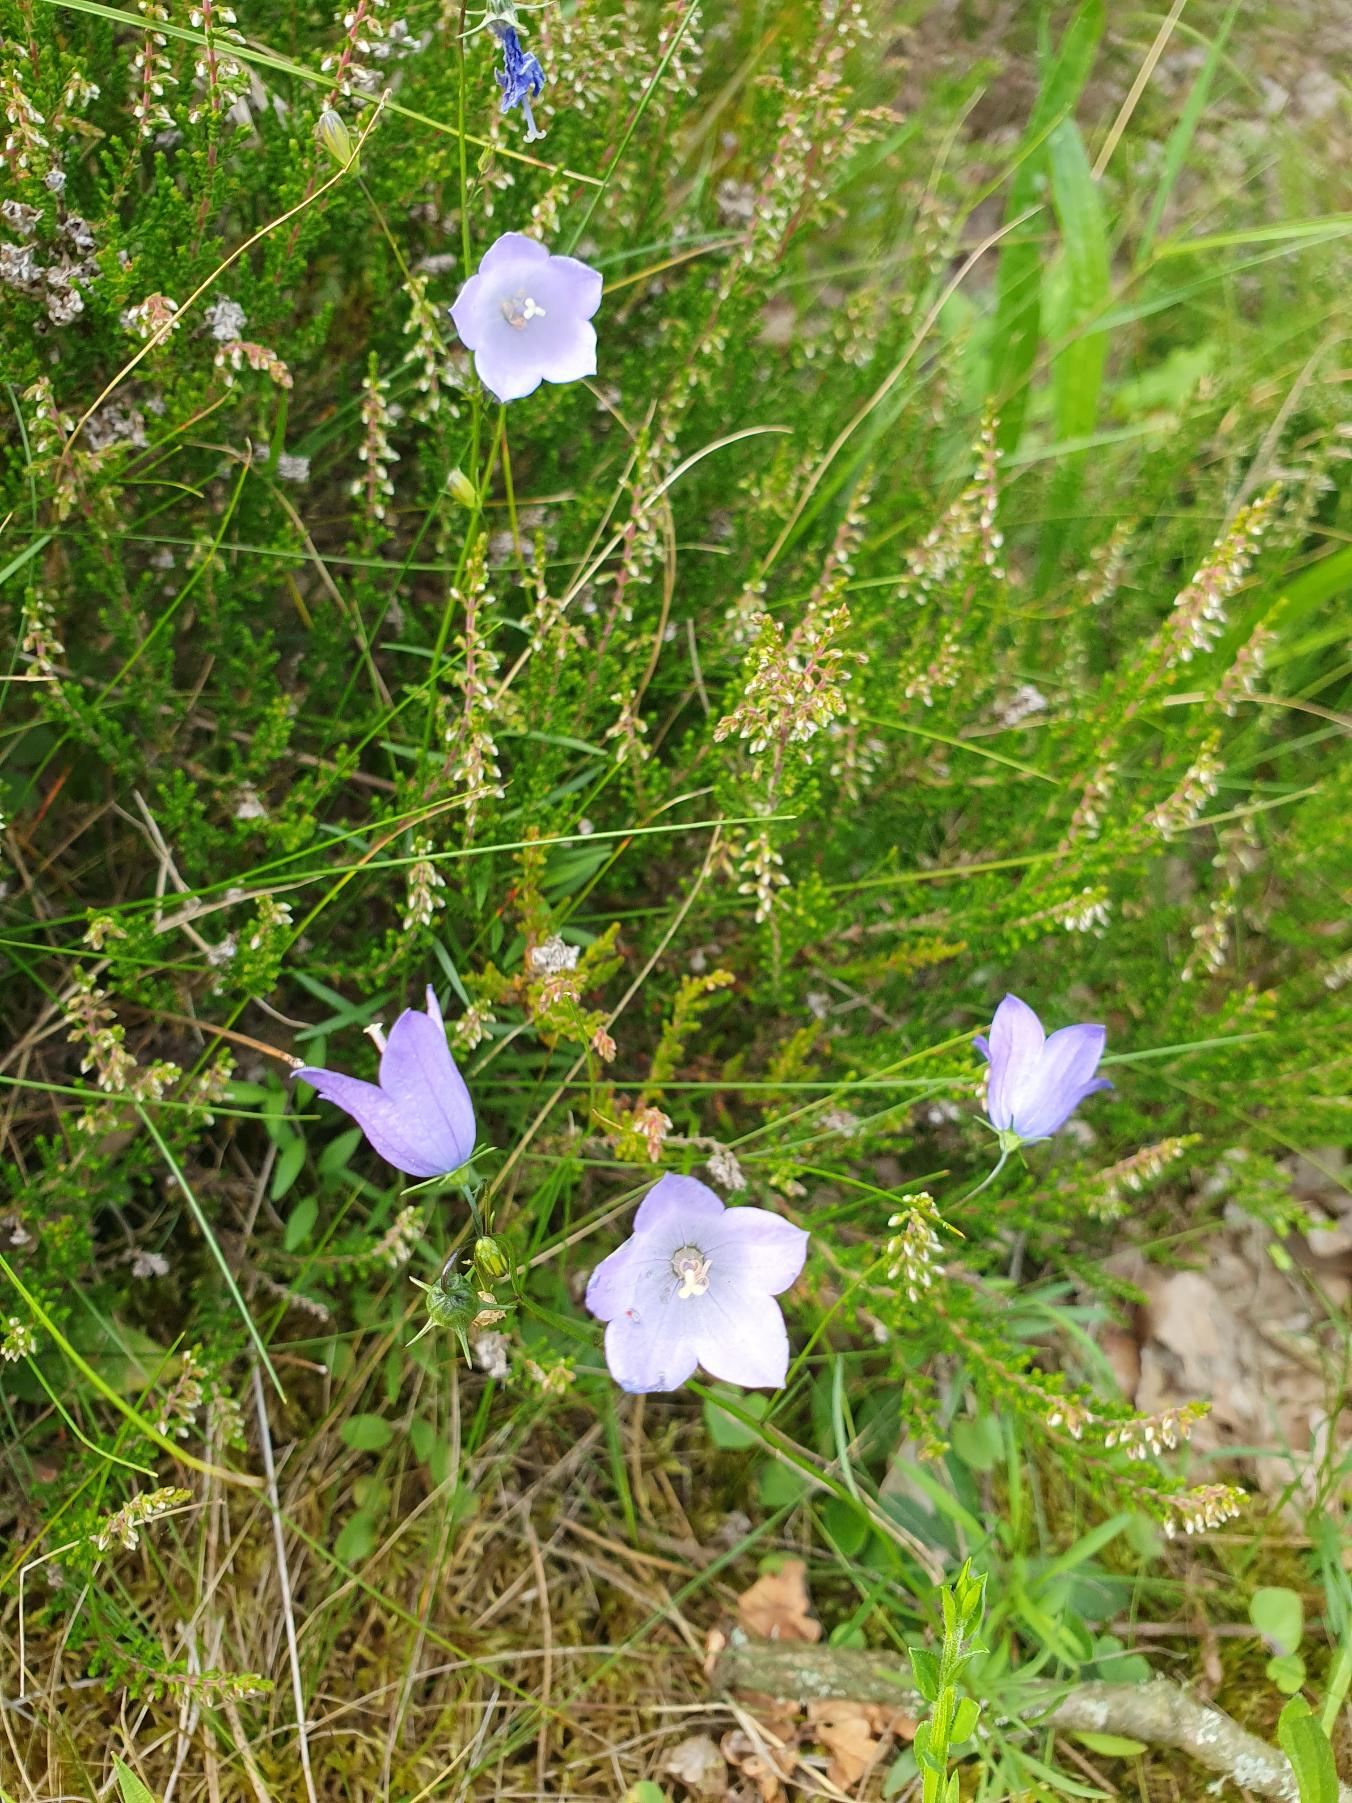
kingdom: Plantae
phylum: Tracheophyta
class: Magnoliopsida
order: Asterales
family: Campanulaceae
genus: Campanula
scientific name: Campanula rotundifolia
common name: Liden klokke
